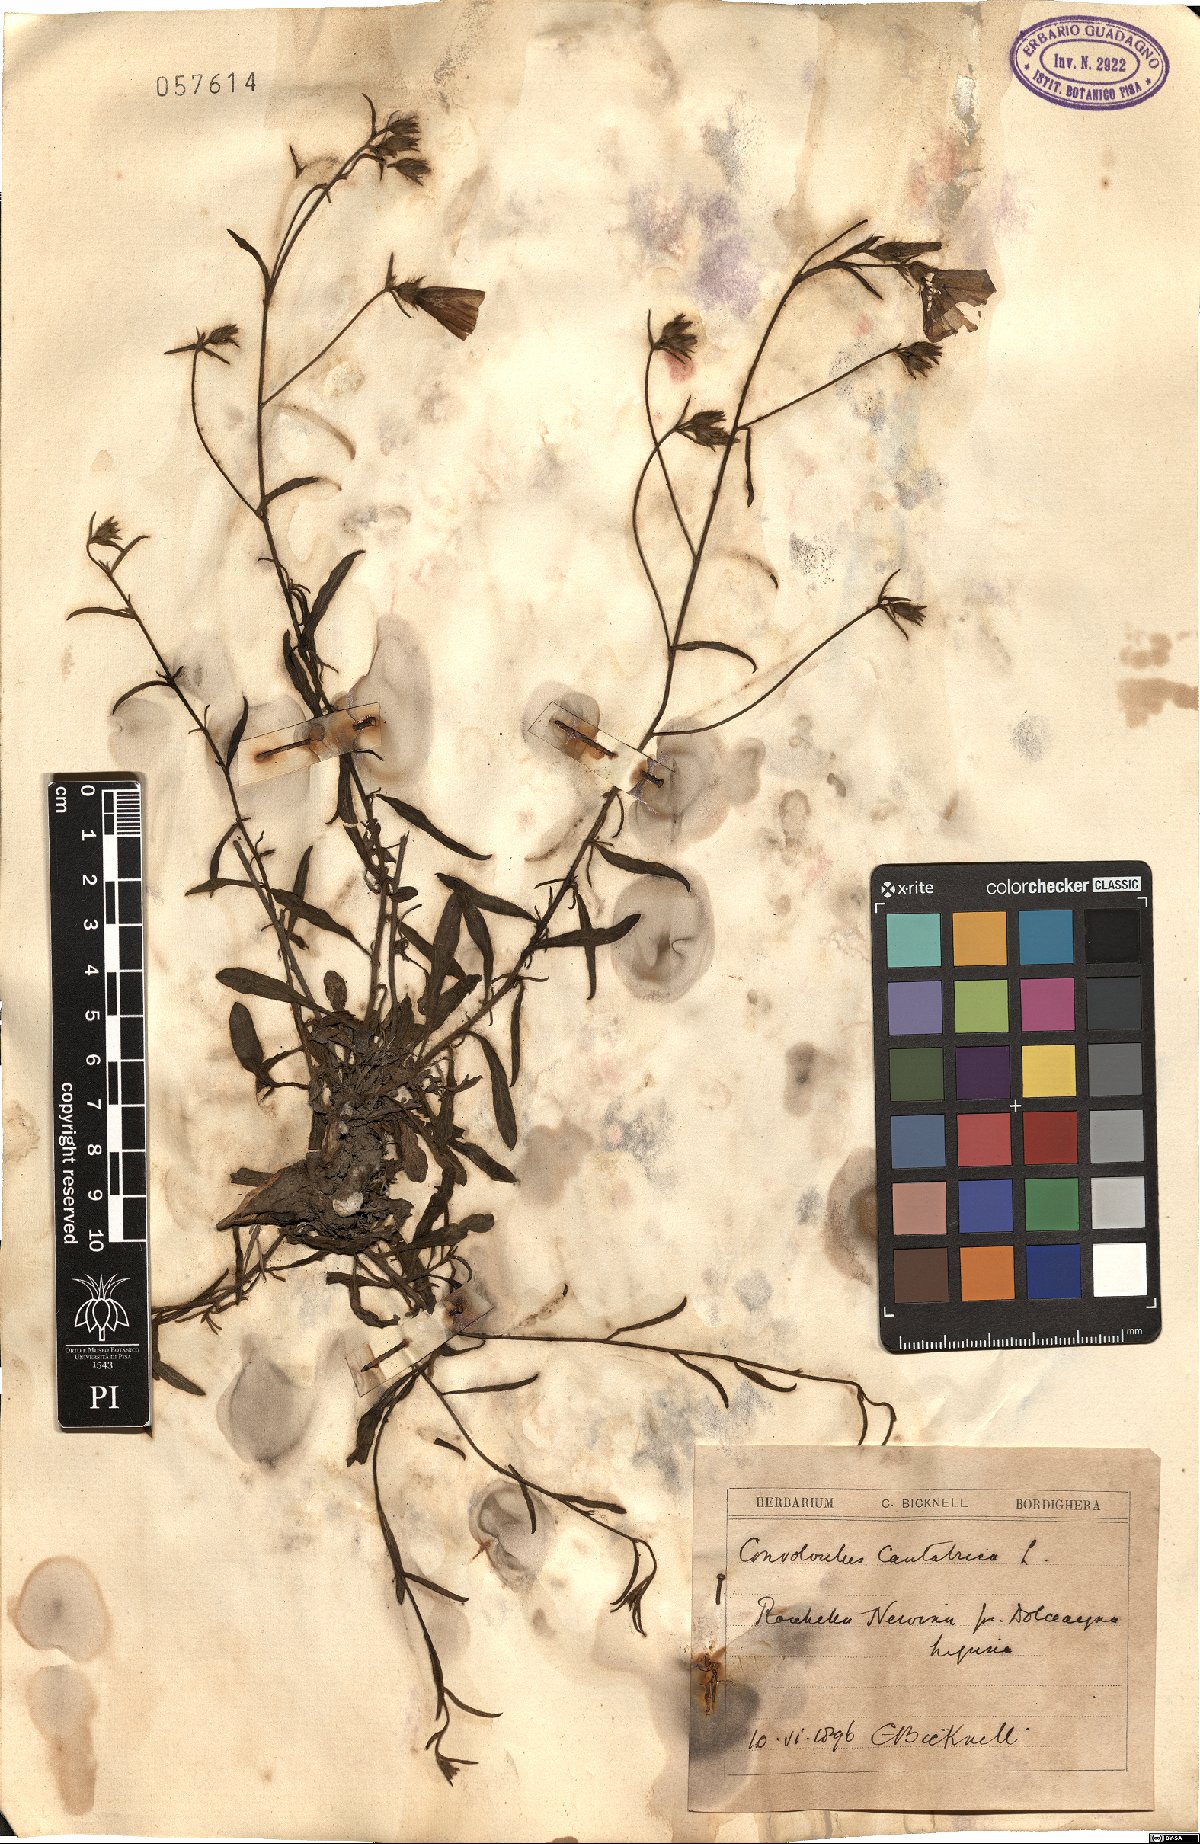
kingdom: Plantae
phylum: Tracheophyta
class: Magnoliopsida
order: Solanales
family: Convolvulaceae
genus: Convolvulus
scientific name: Convolvulus cantabrica
